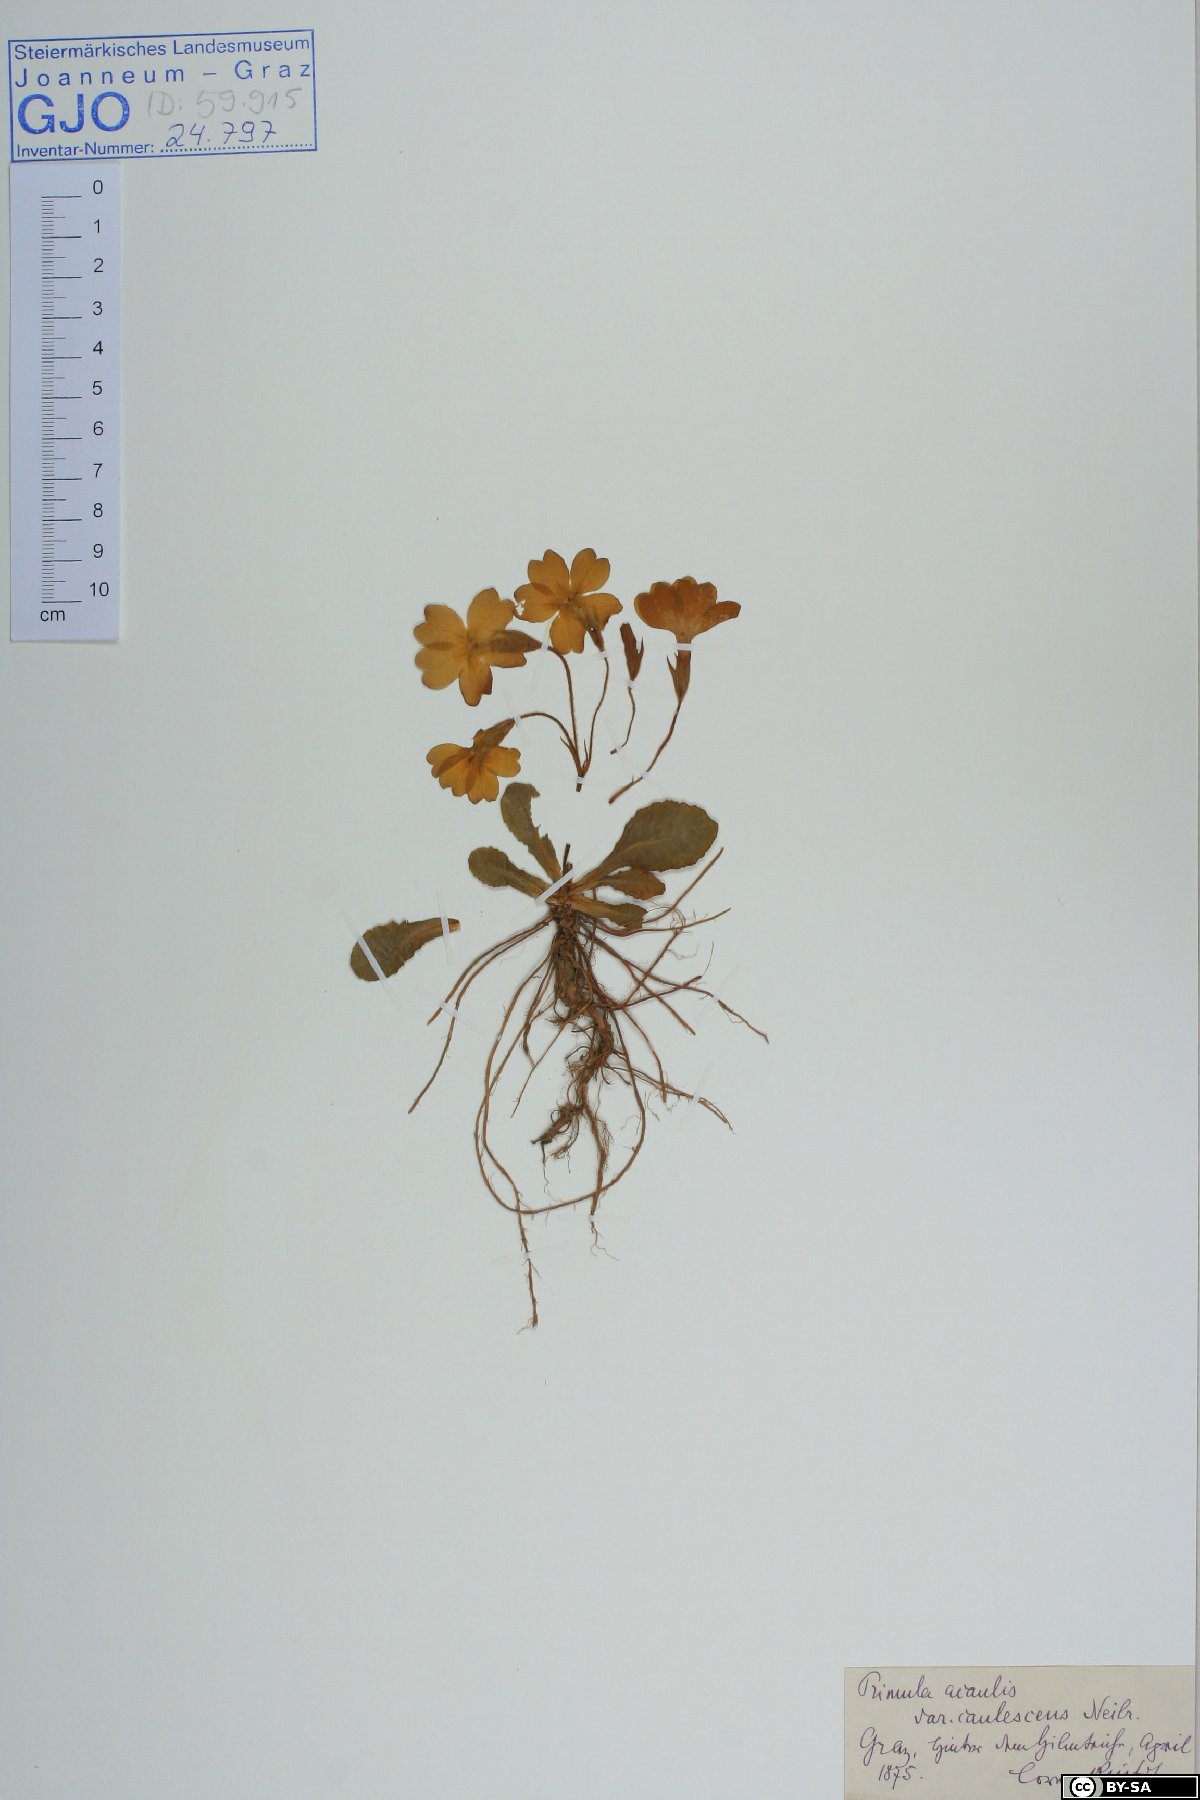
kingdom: Plantae
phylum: Tracheophyta
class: Magnoliopsida
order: Ericales
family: Primulaceae
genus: Primula
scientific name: Primula vulgaris
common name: Primrose
